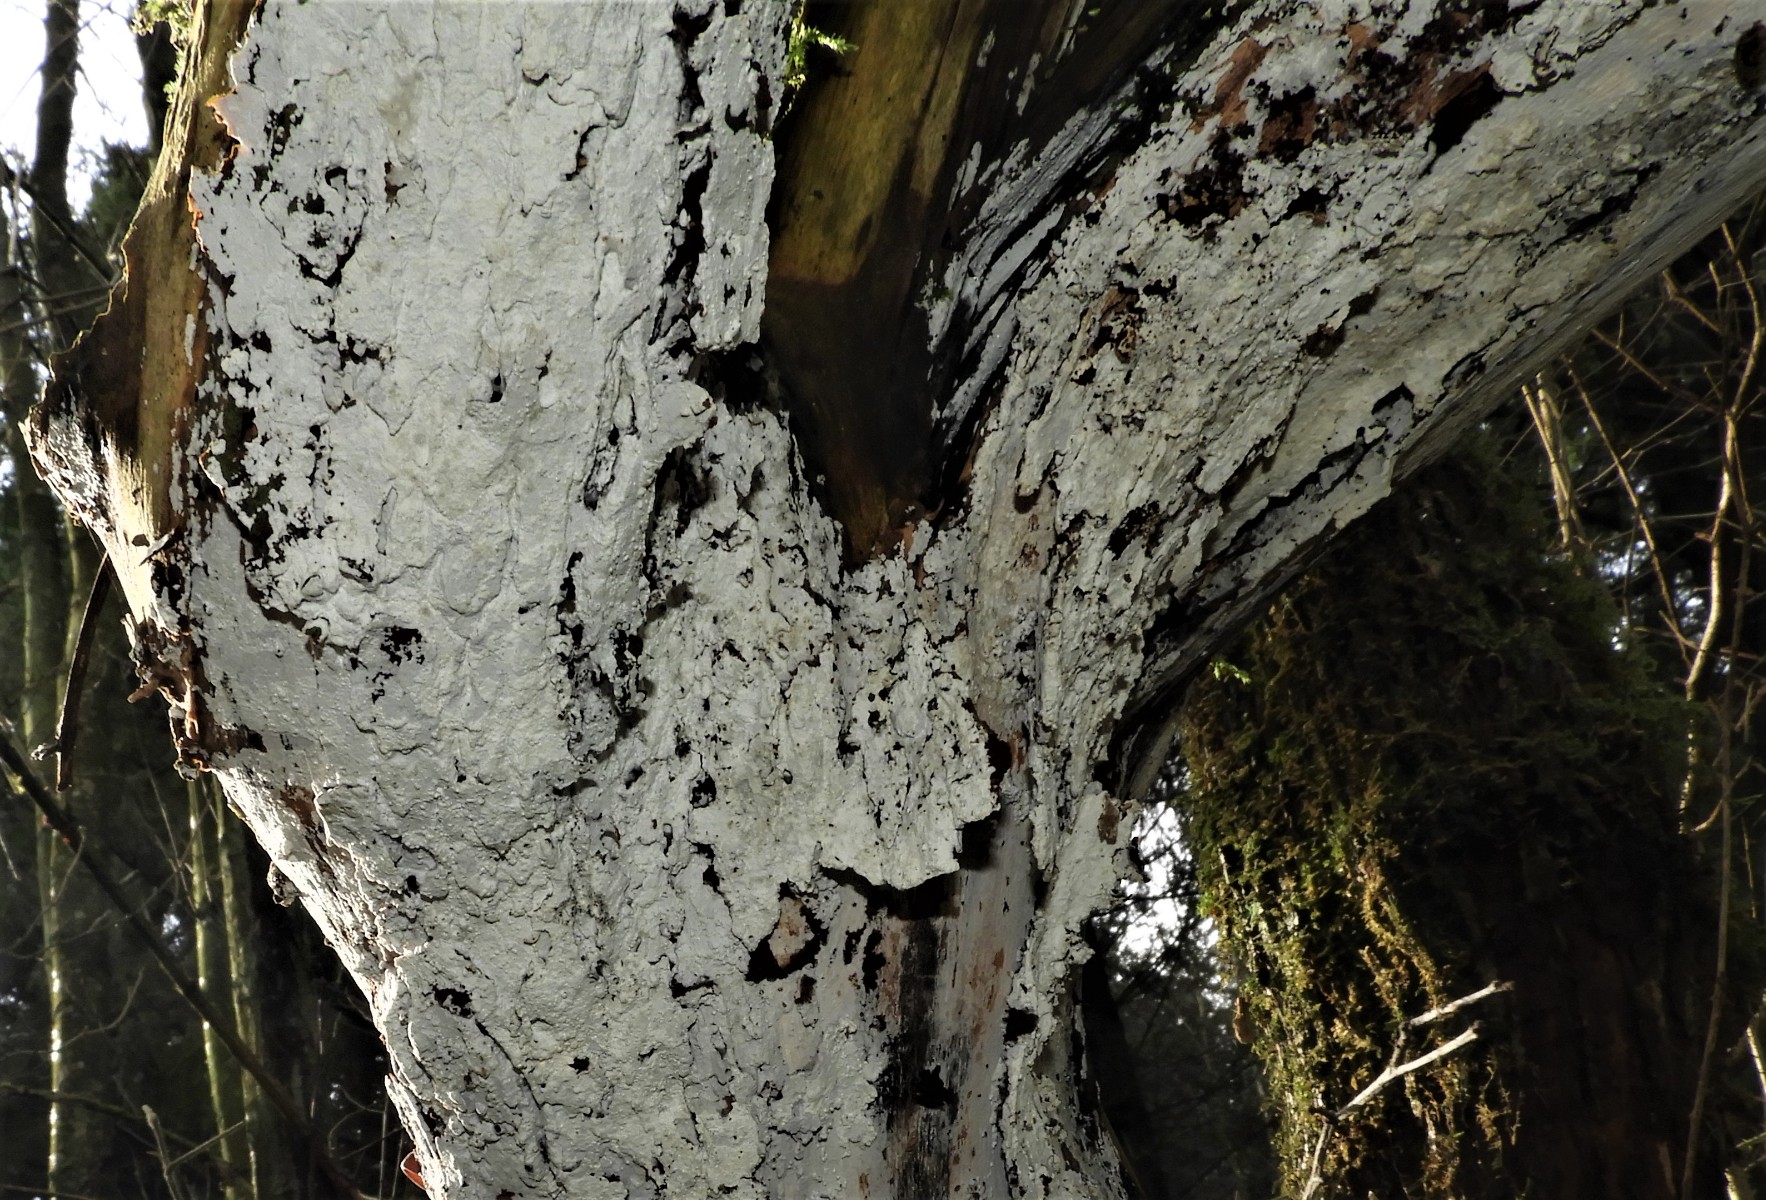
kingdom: Fungi
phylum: Basidiomycota
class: Agaricomycetes
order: Corticiales
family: Corticiaceae
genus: Lyomyces
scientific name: Lyomyces sambuci
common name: almindelig hyldehinde
